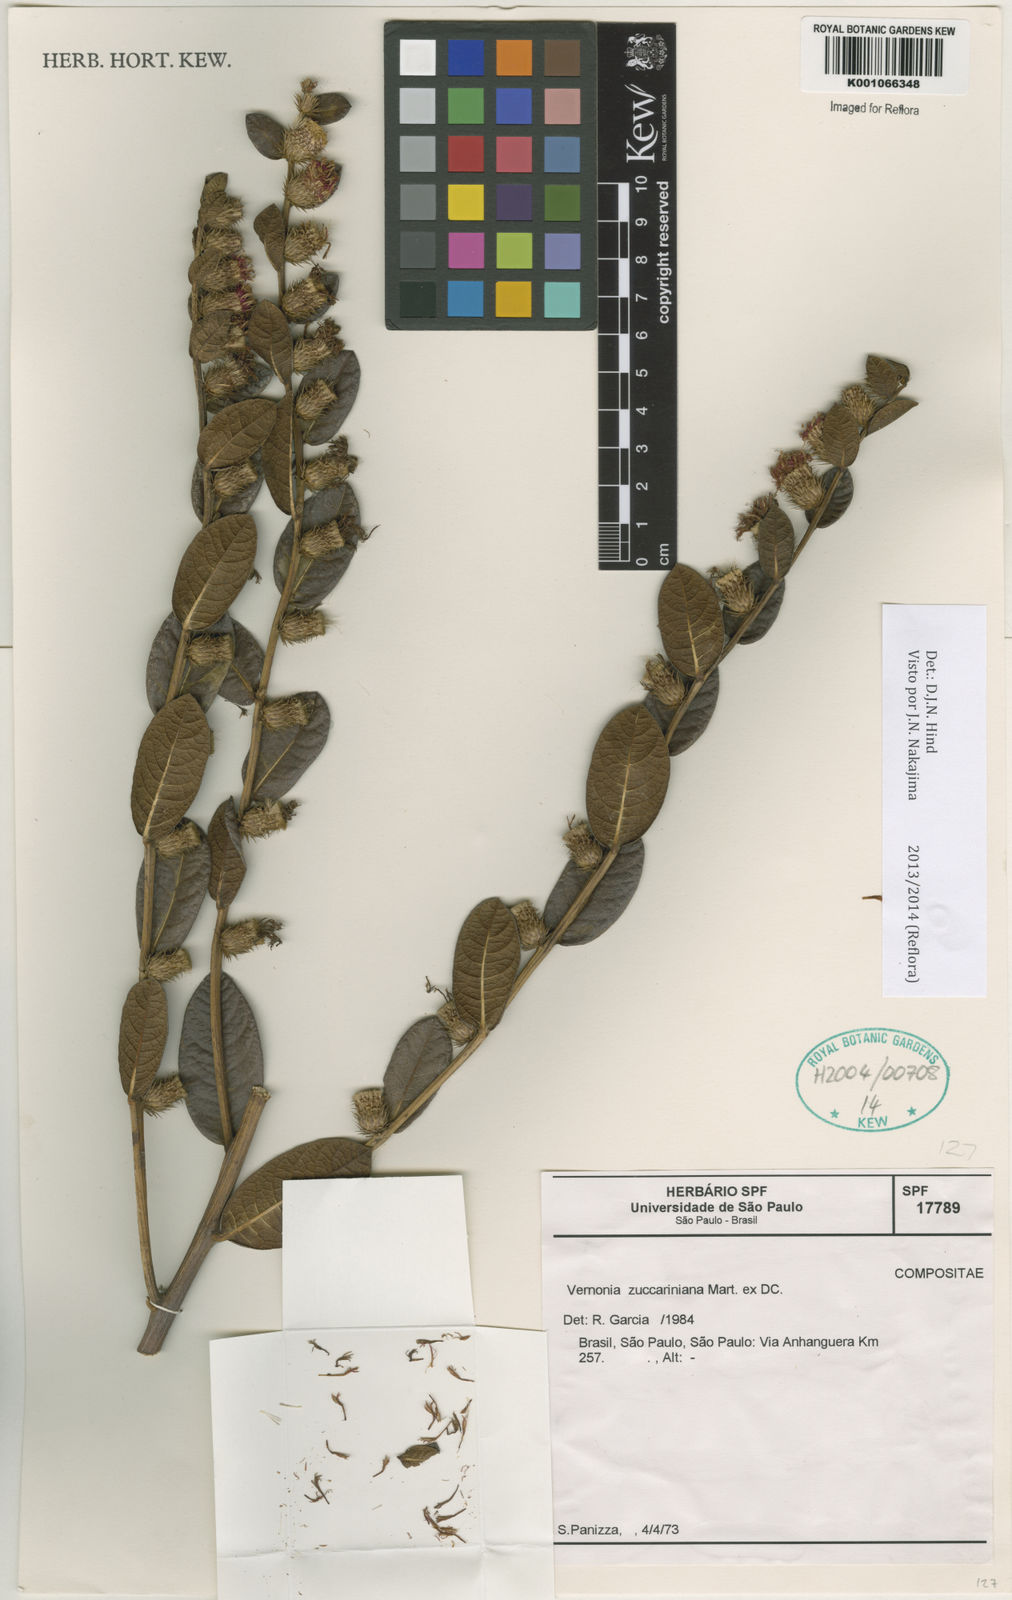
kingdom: Plantae
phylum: Tracheophyta
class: Magnoliopsida
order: Asterales
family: Asteraceae
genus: Lessingianthus
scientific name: Lessingianthus profusus
